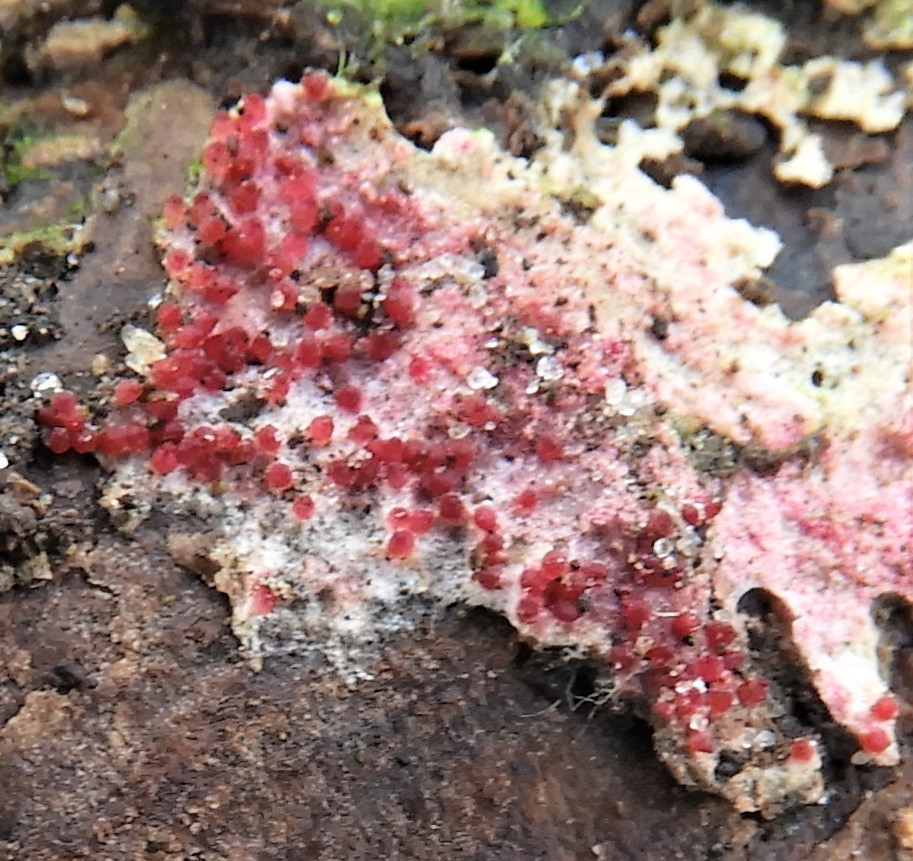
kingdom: Fungi
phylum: Ascomycota
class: Sordariomycetes
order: Hypocreales
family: Hypocreaceae
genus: Hypomyces
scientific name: Hypomyces rosellus
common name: rosa snylteskorpe
